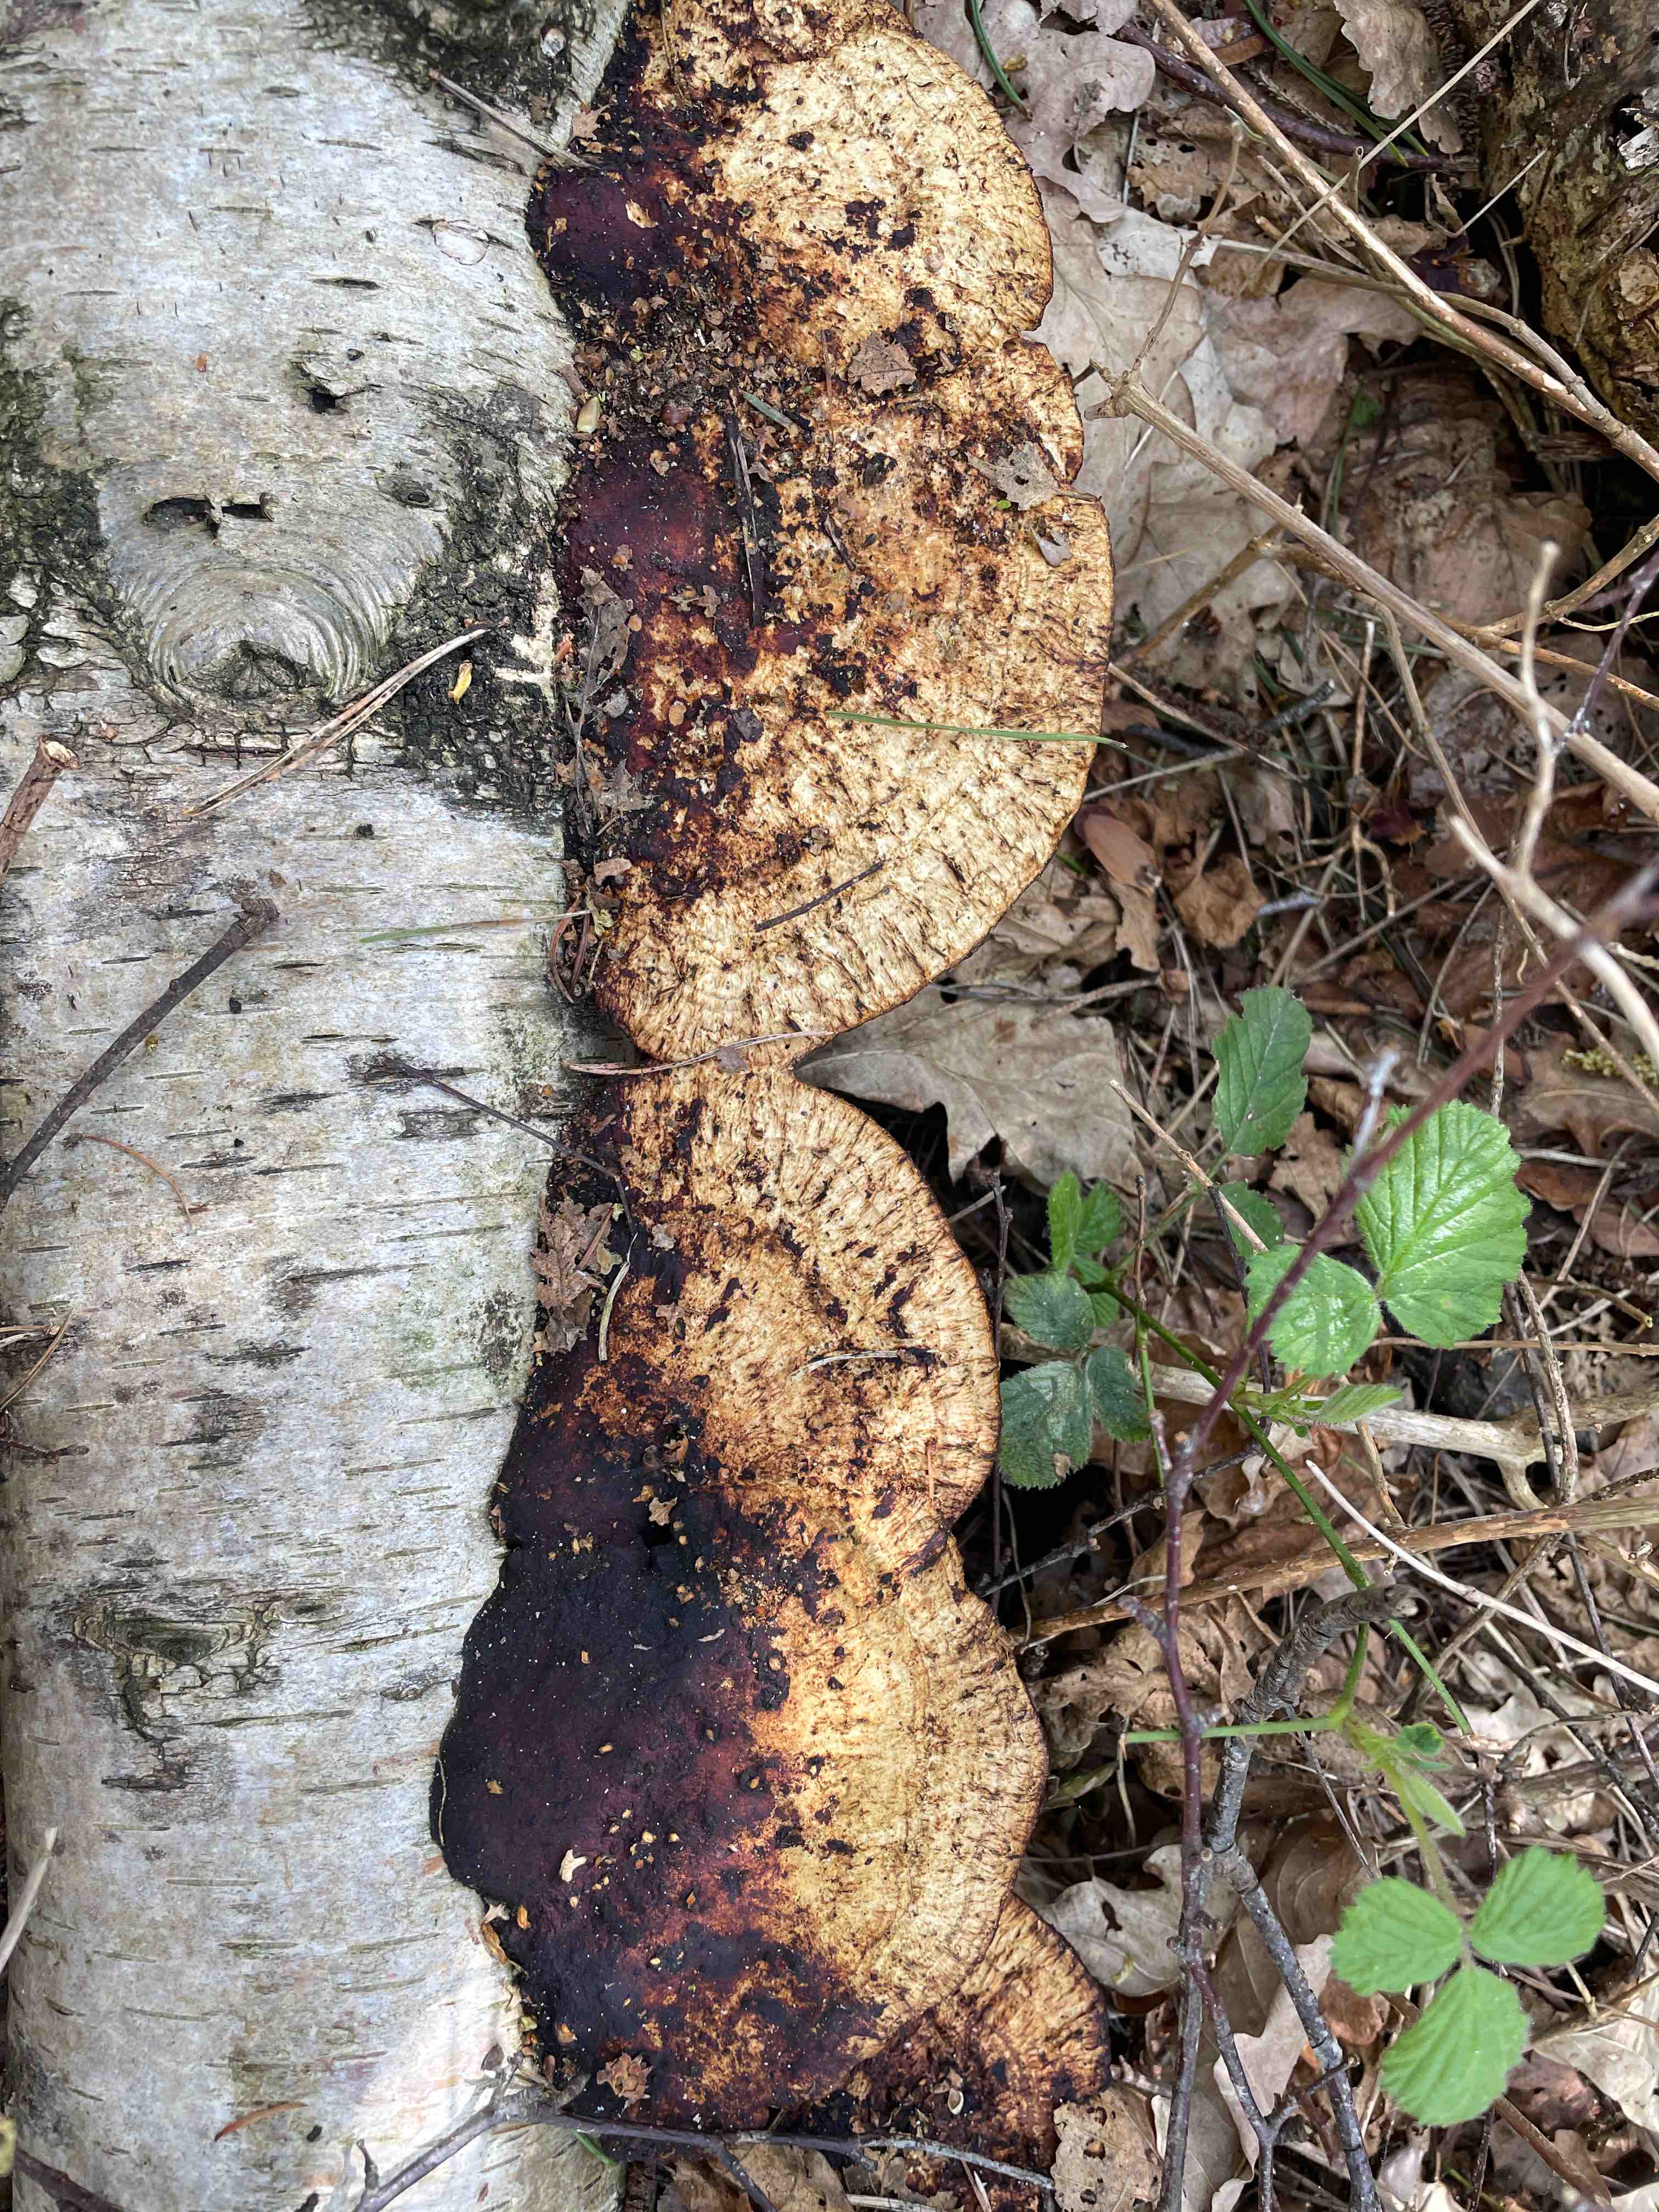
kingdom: Fungi
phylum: Basidiomycota
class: Agaricomycetes
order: Polyporales
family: Polyporaceae
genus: Daedaleopsis
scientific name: Daedaleopsis confragosa
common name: rødmende læderporesvamp
